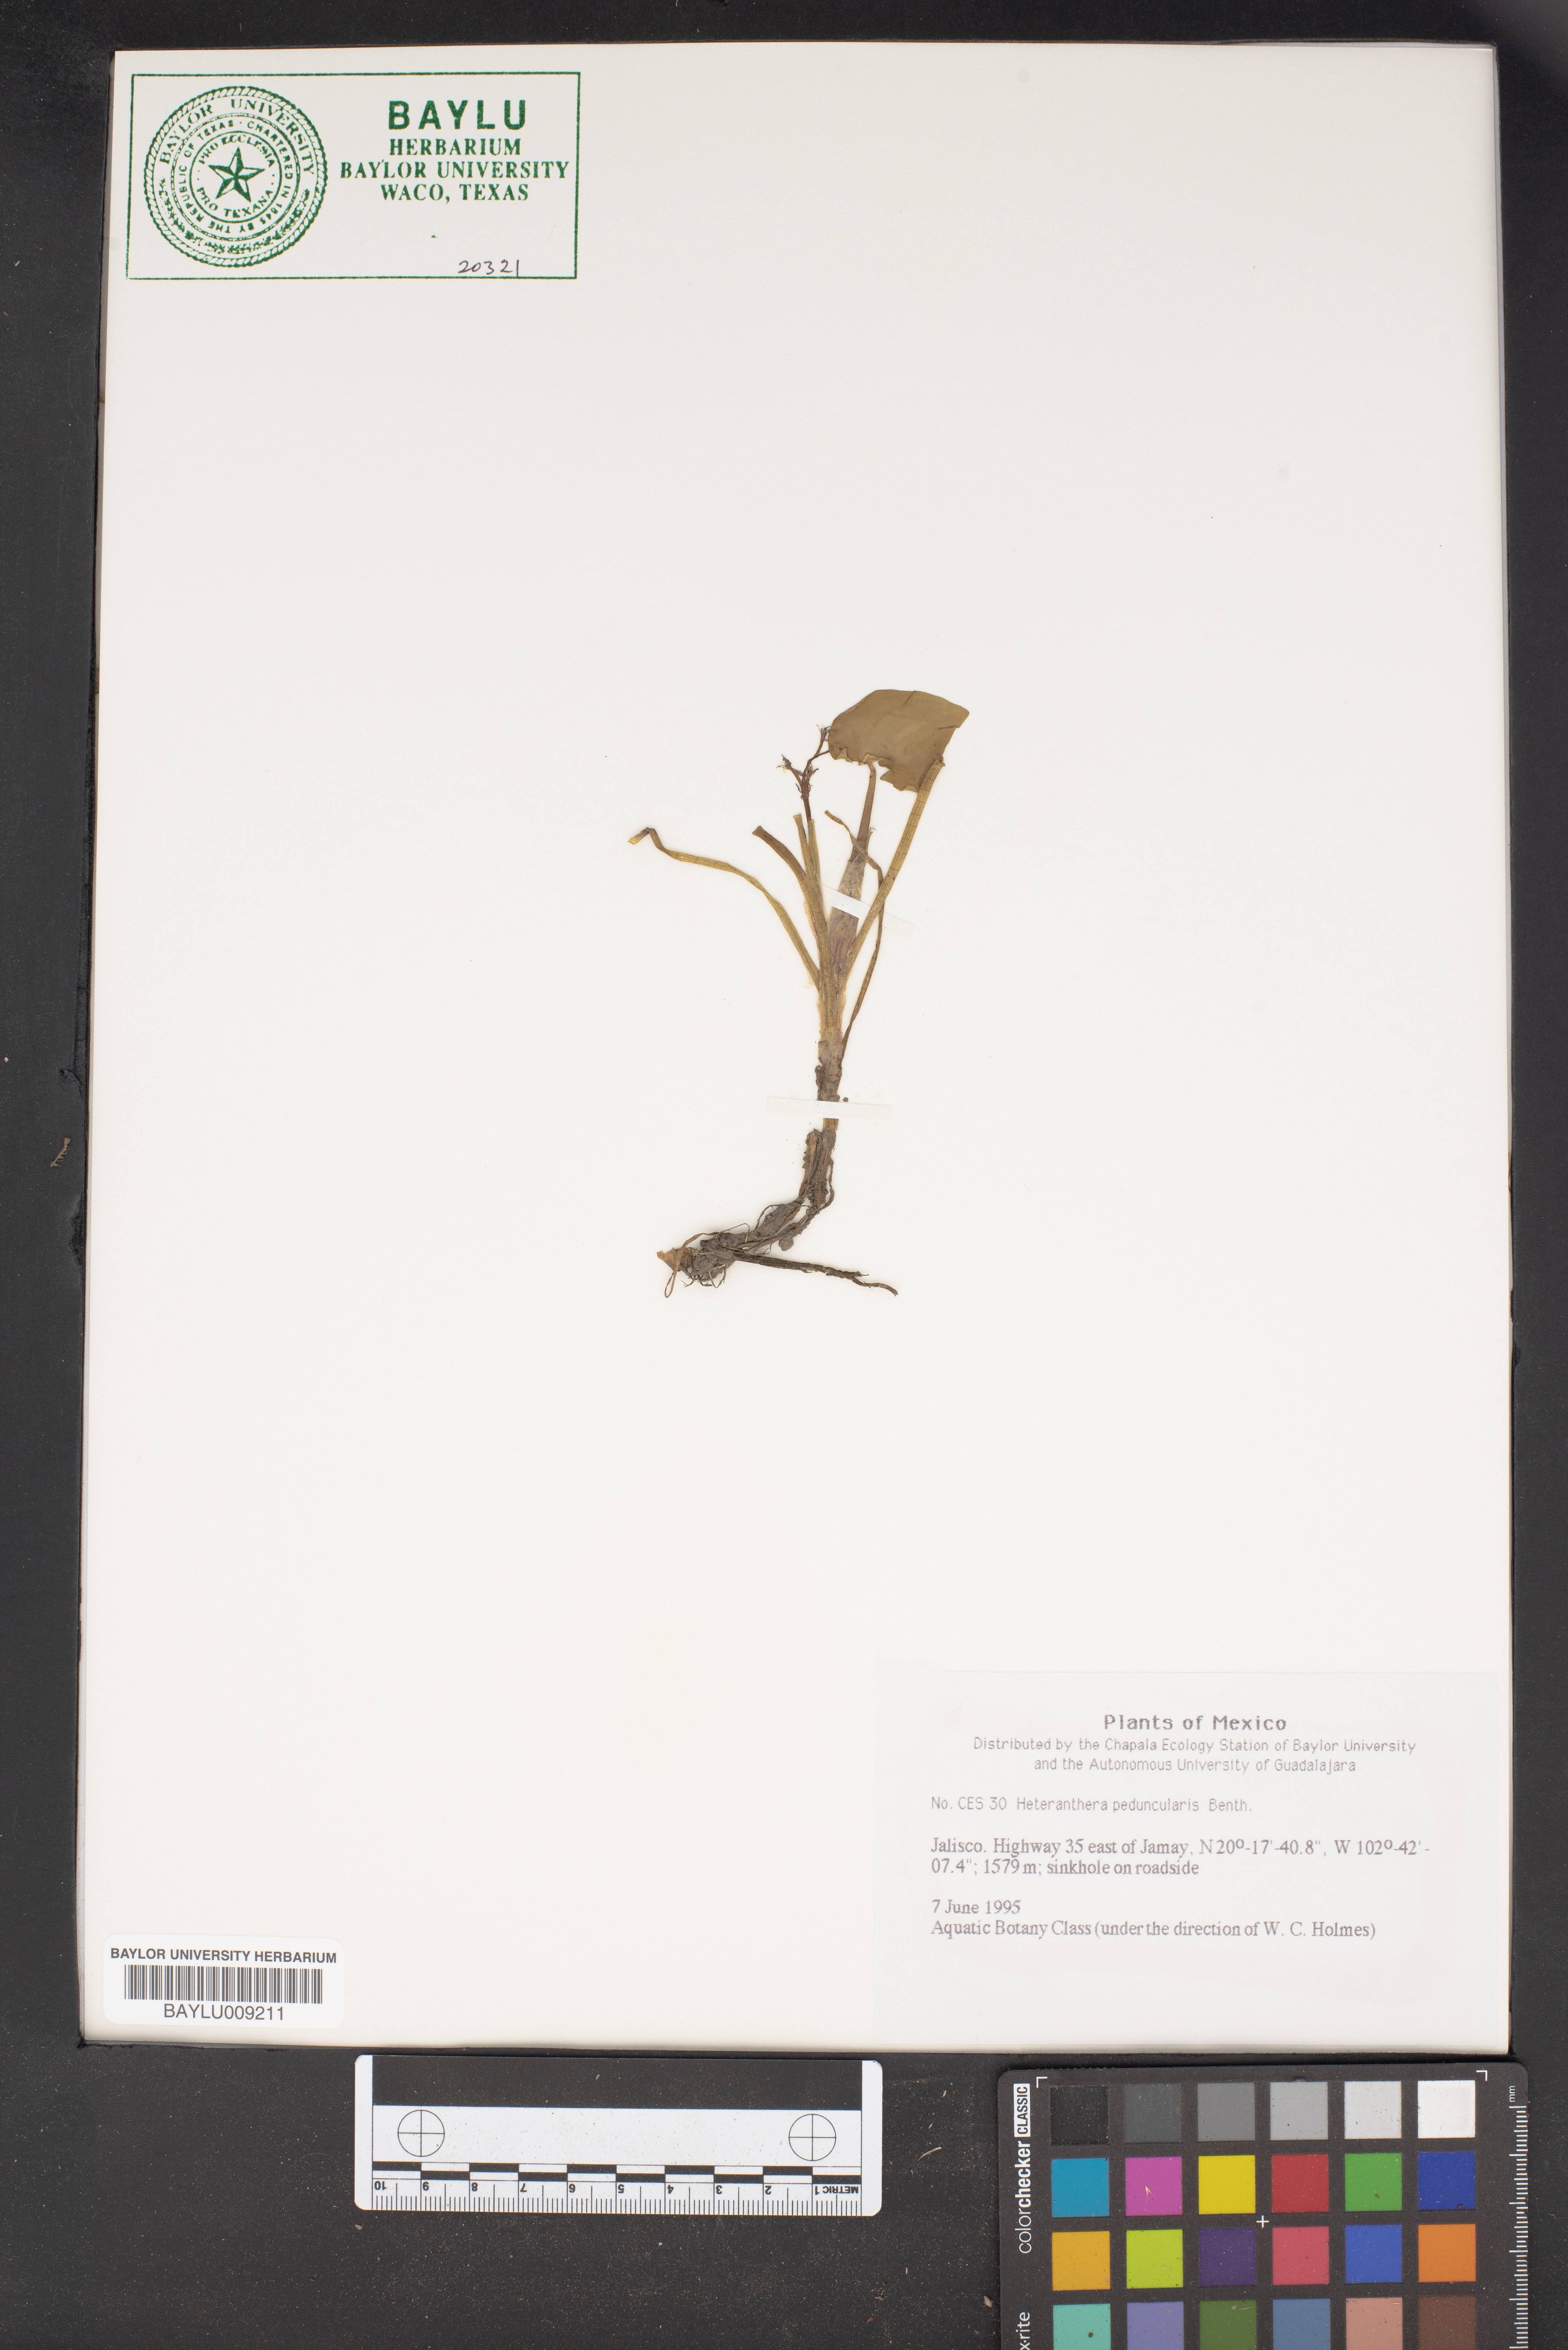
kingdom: Plantae
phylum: Tracheophyta
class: Liliopsida
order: Commelinales
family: Pontederiaceae
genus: Heteranthera
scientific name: Heteranthera peduncularis
